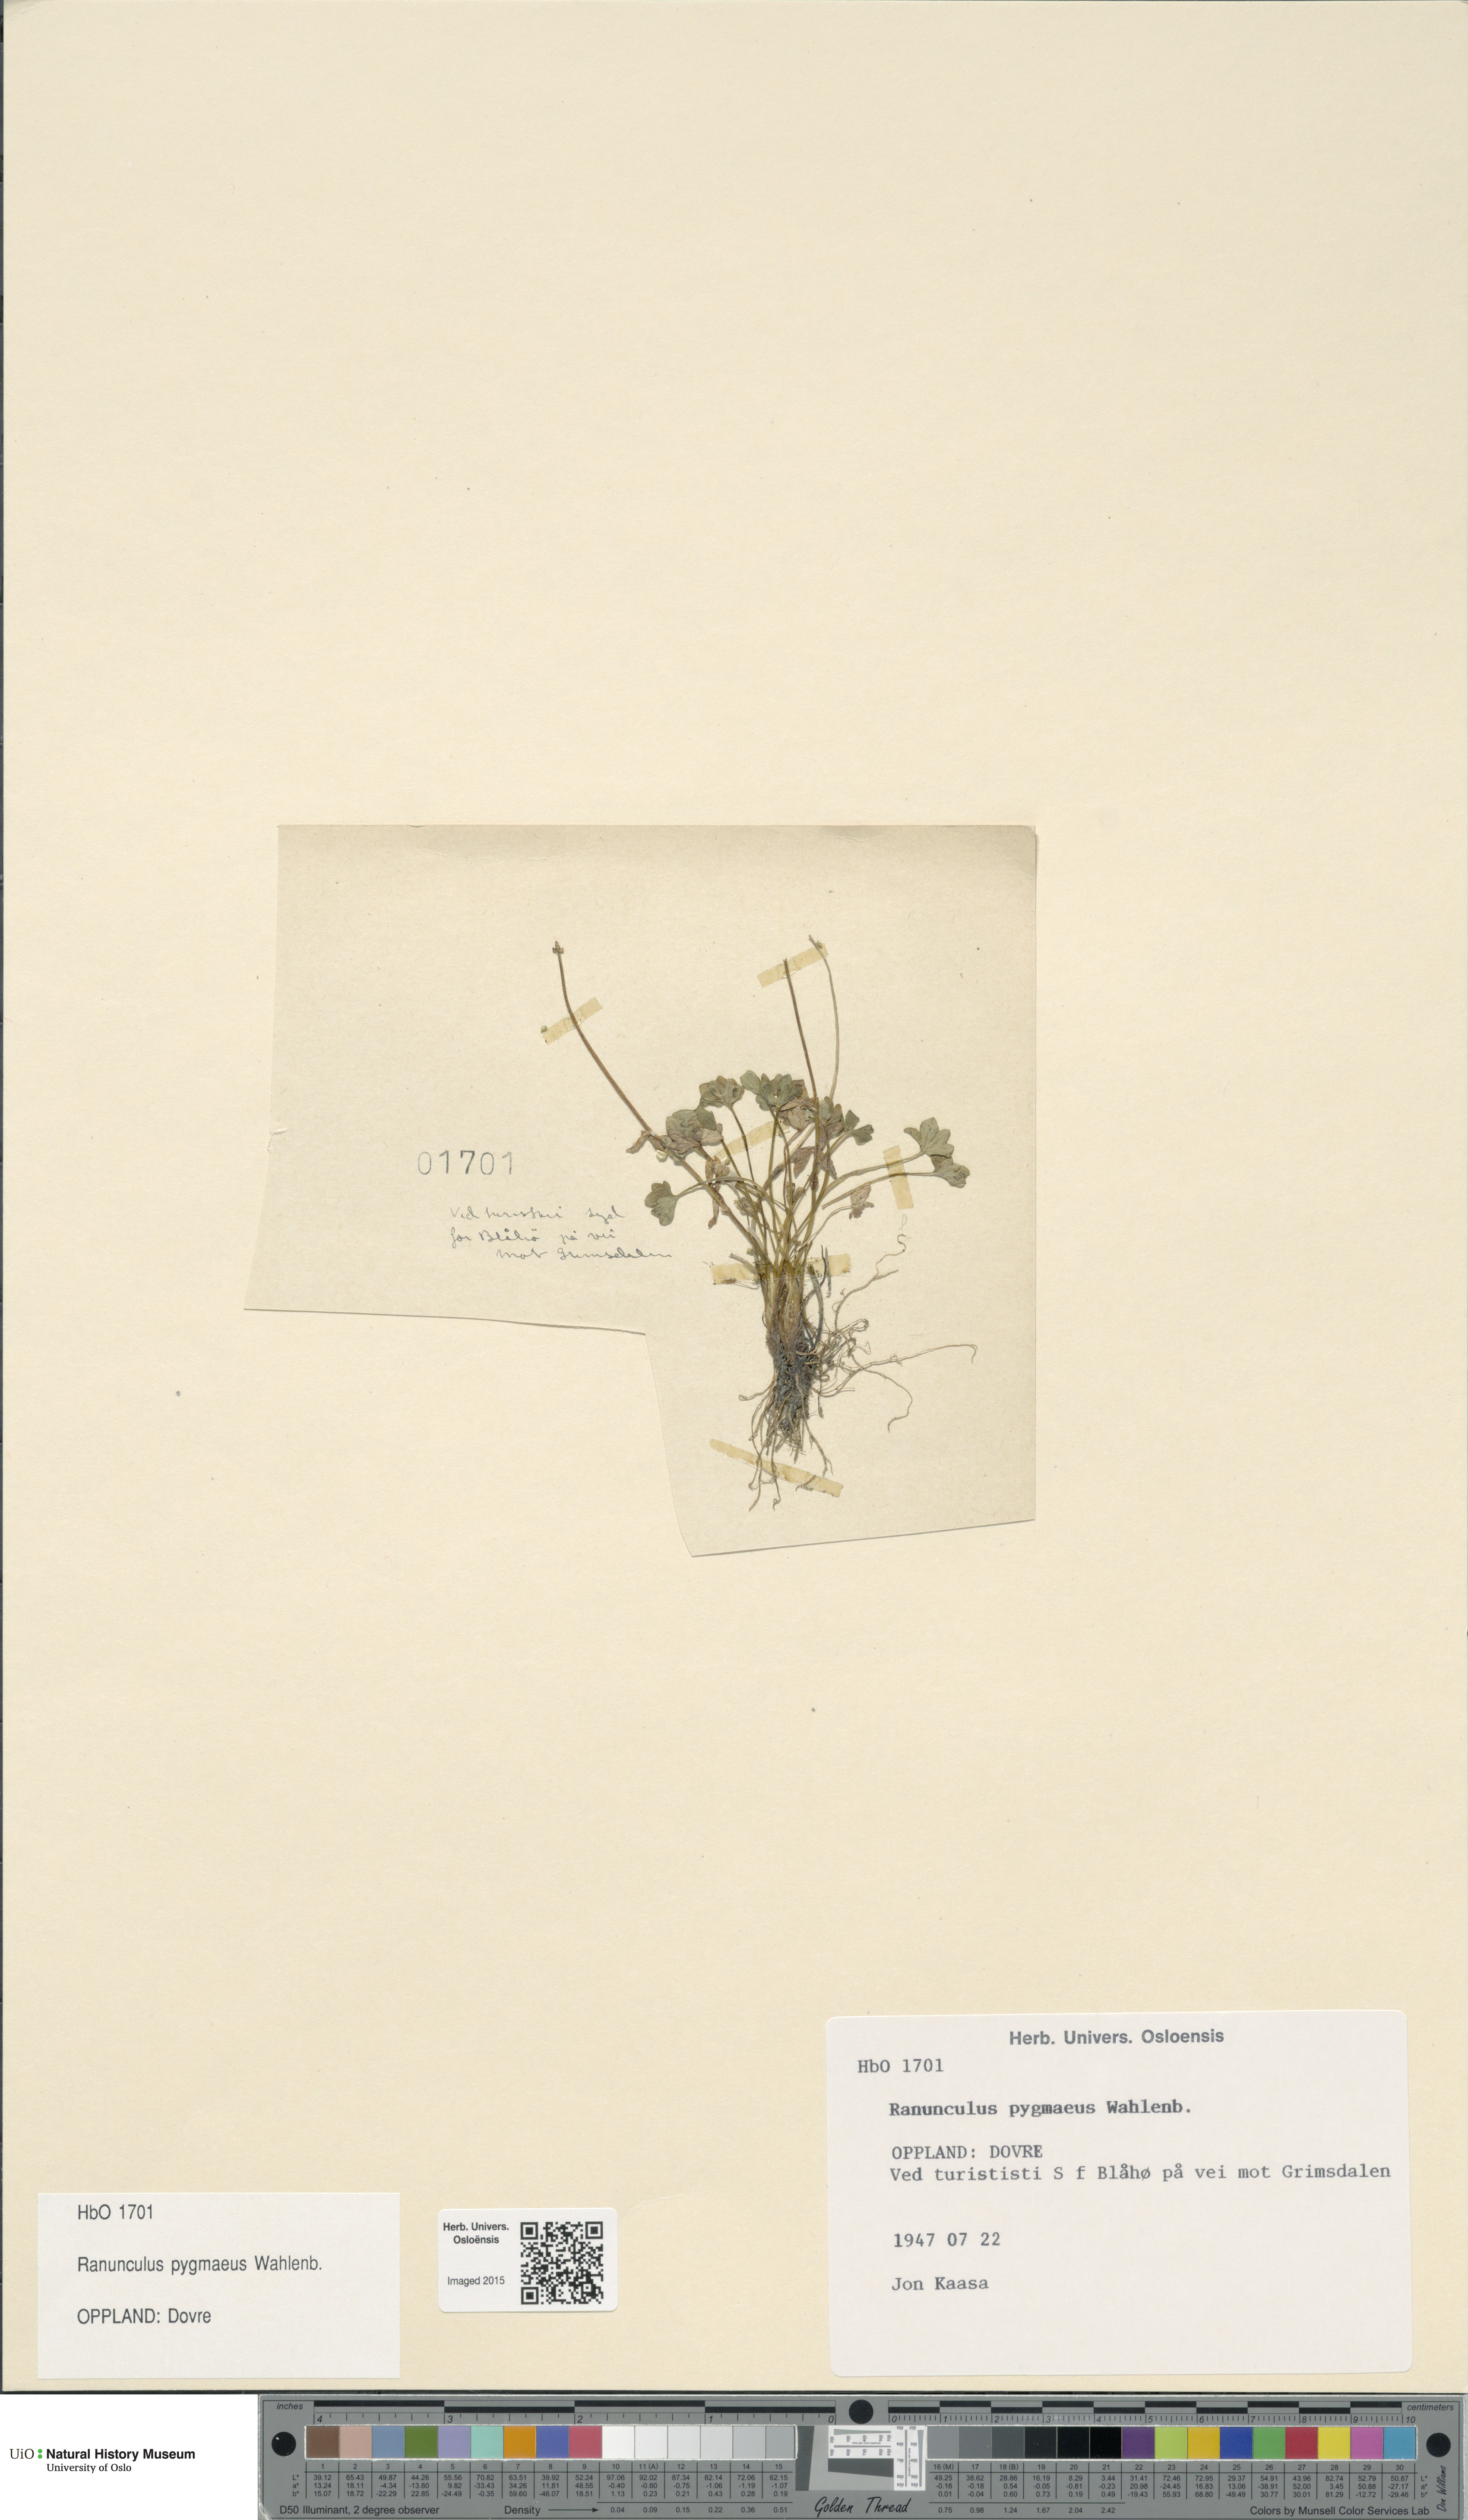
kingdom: Plantae
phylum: Tracheophyta
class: Magnoliopsida
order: Ranunculales
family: Ranunculaceae
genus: Ranunculus
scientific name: Ranunculus pygmaeus
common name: Dwarf buttercup
